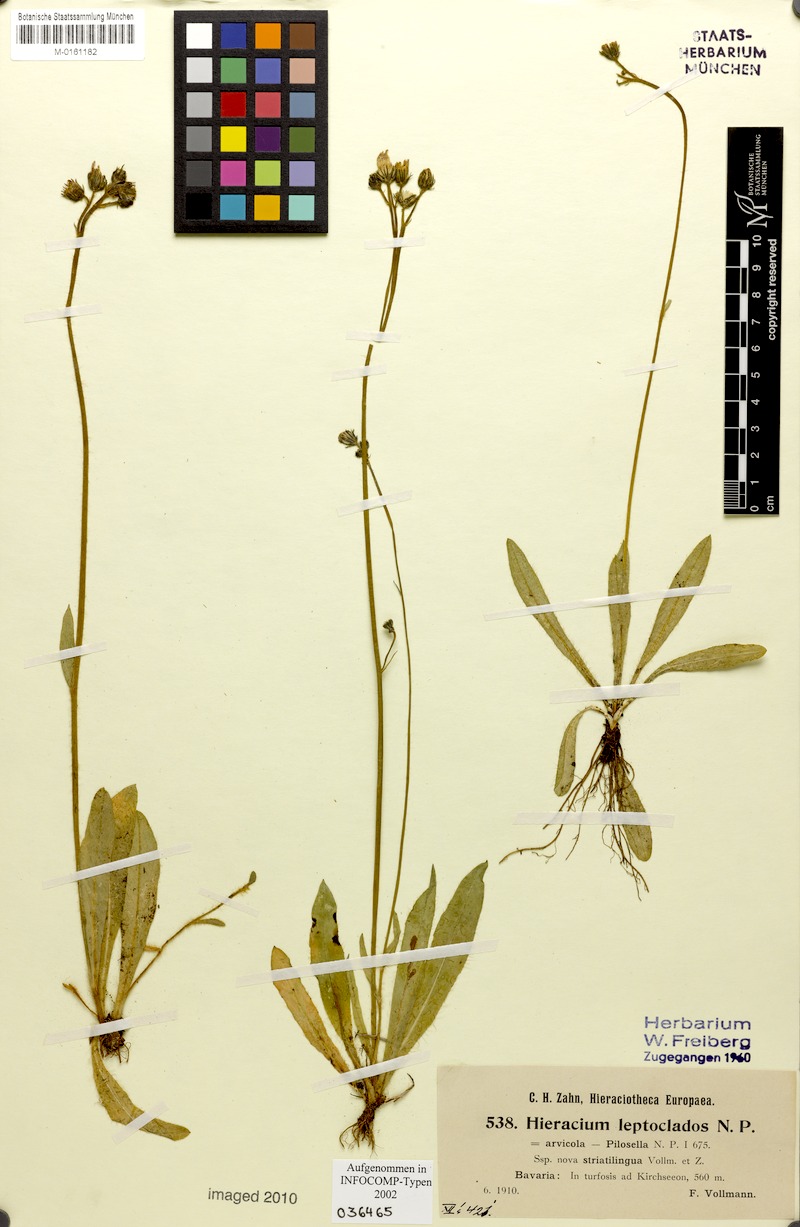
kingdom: Plantae
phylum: Tracheophyta
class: Magnoliopsida
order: Asterales
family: Asteraceae
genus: Pilosella
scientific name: Pilosella leptoclados
